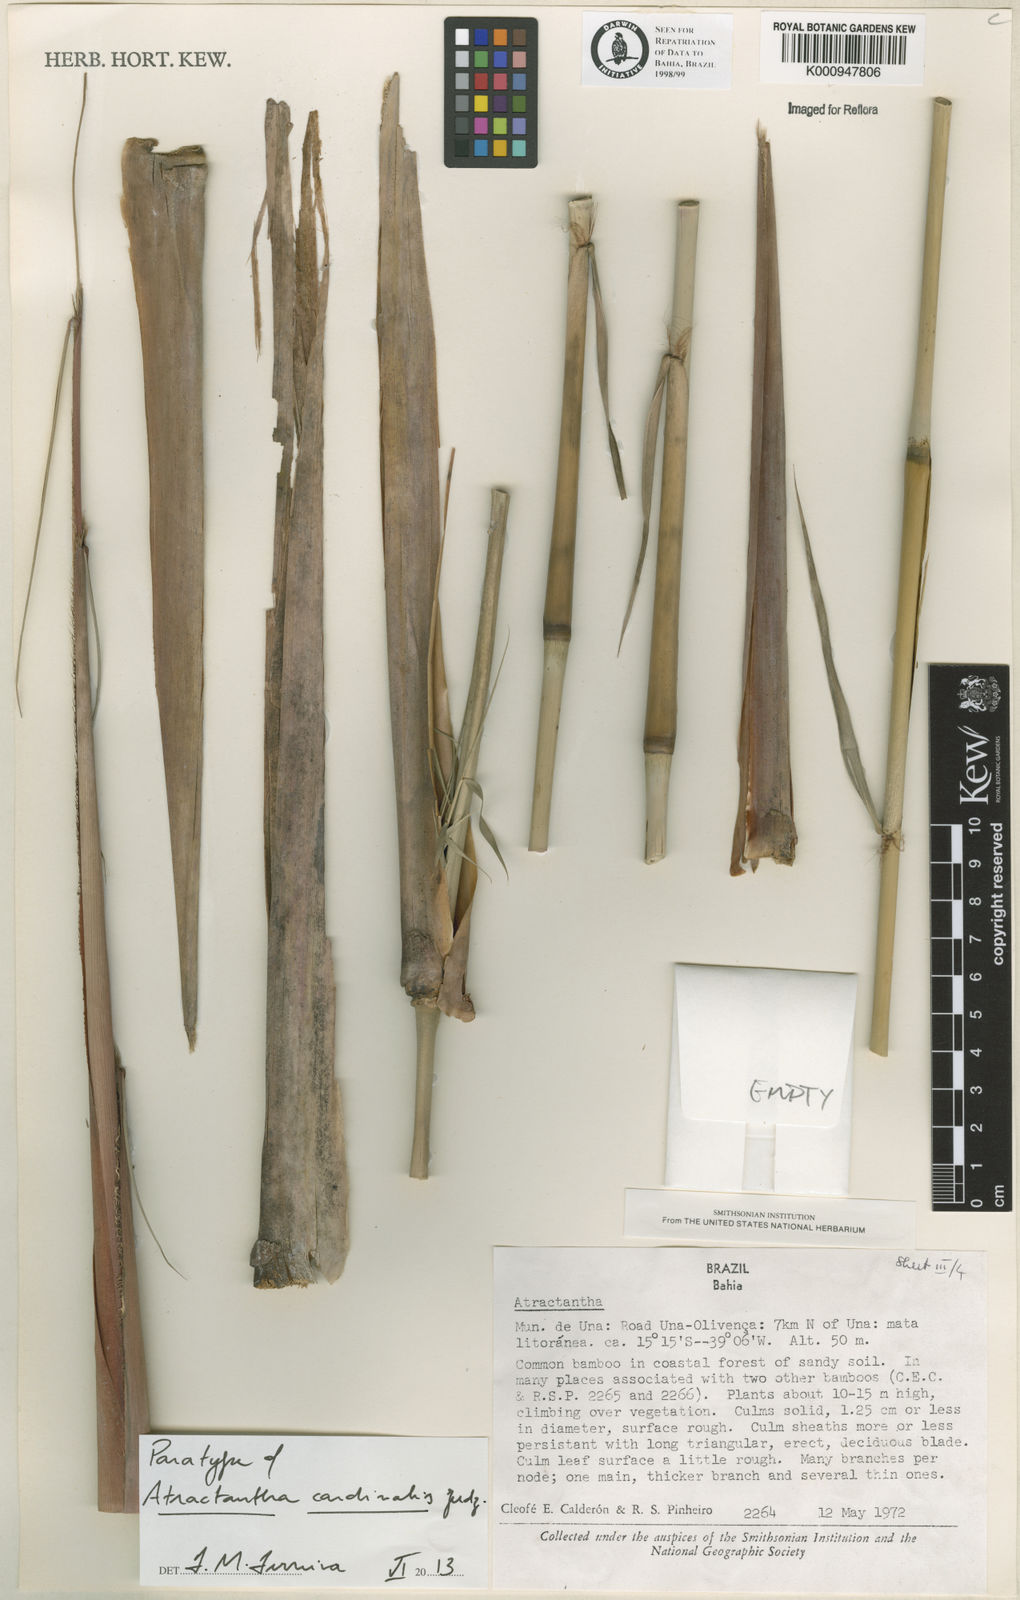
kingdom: Plantae
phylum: Tracheophyta
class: Liliopsida
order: Poales
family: Poaceae
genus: Atractantha
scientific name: Atractantha cardinalis
